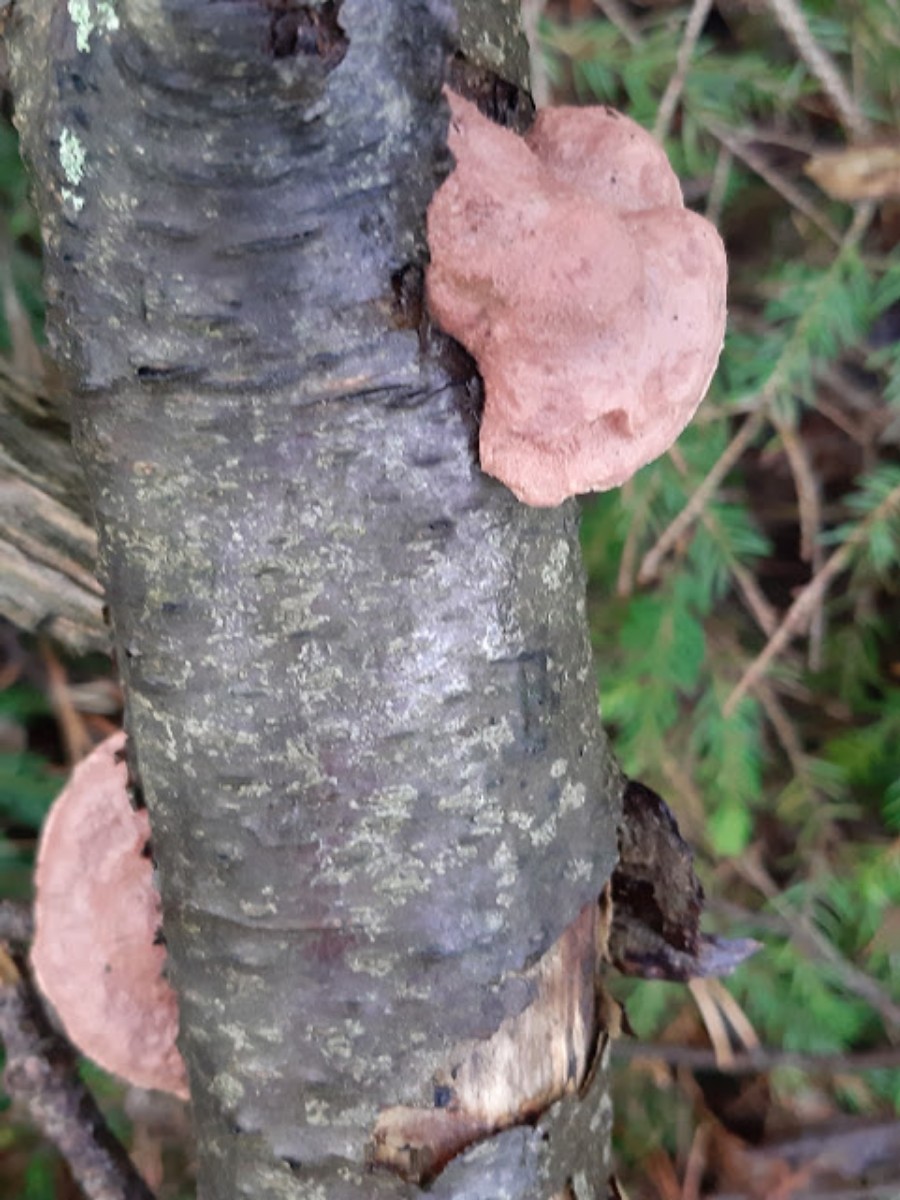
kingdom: Fungi
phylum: Basidiomycota
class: Agaricomycetes
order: Polyporales
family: Phanerochaetaceae
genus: Hapalopilus
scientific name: Hapalopilus rutilans
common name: rødlig okkerporesvamp
